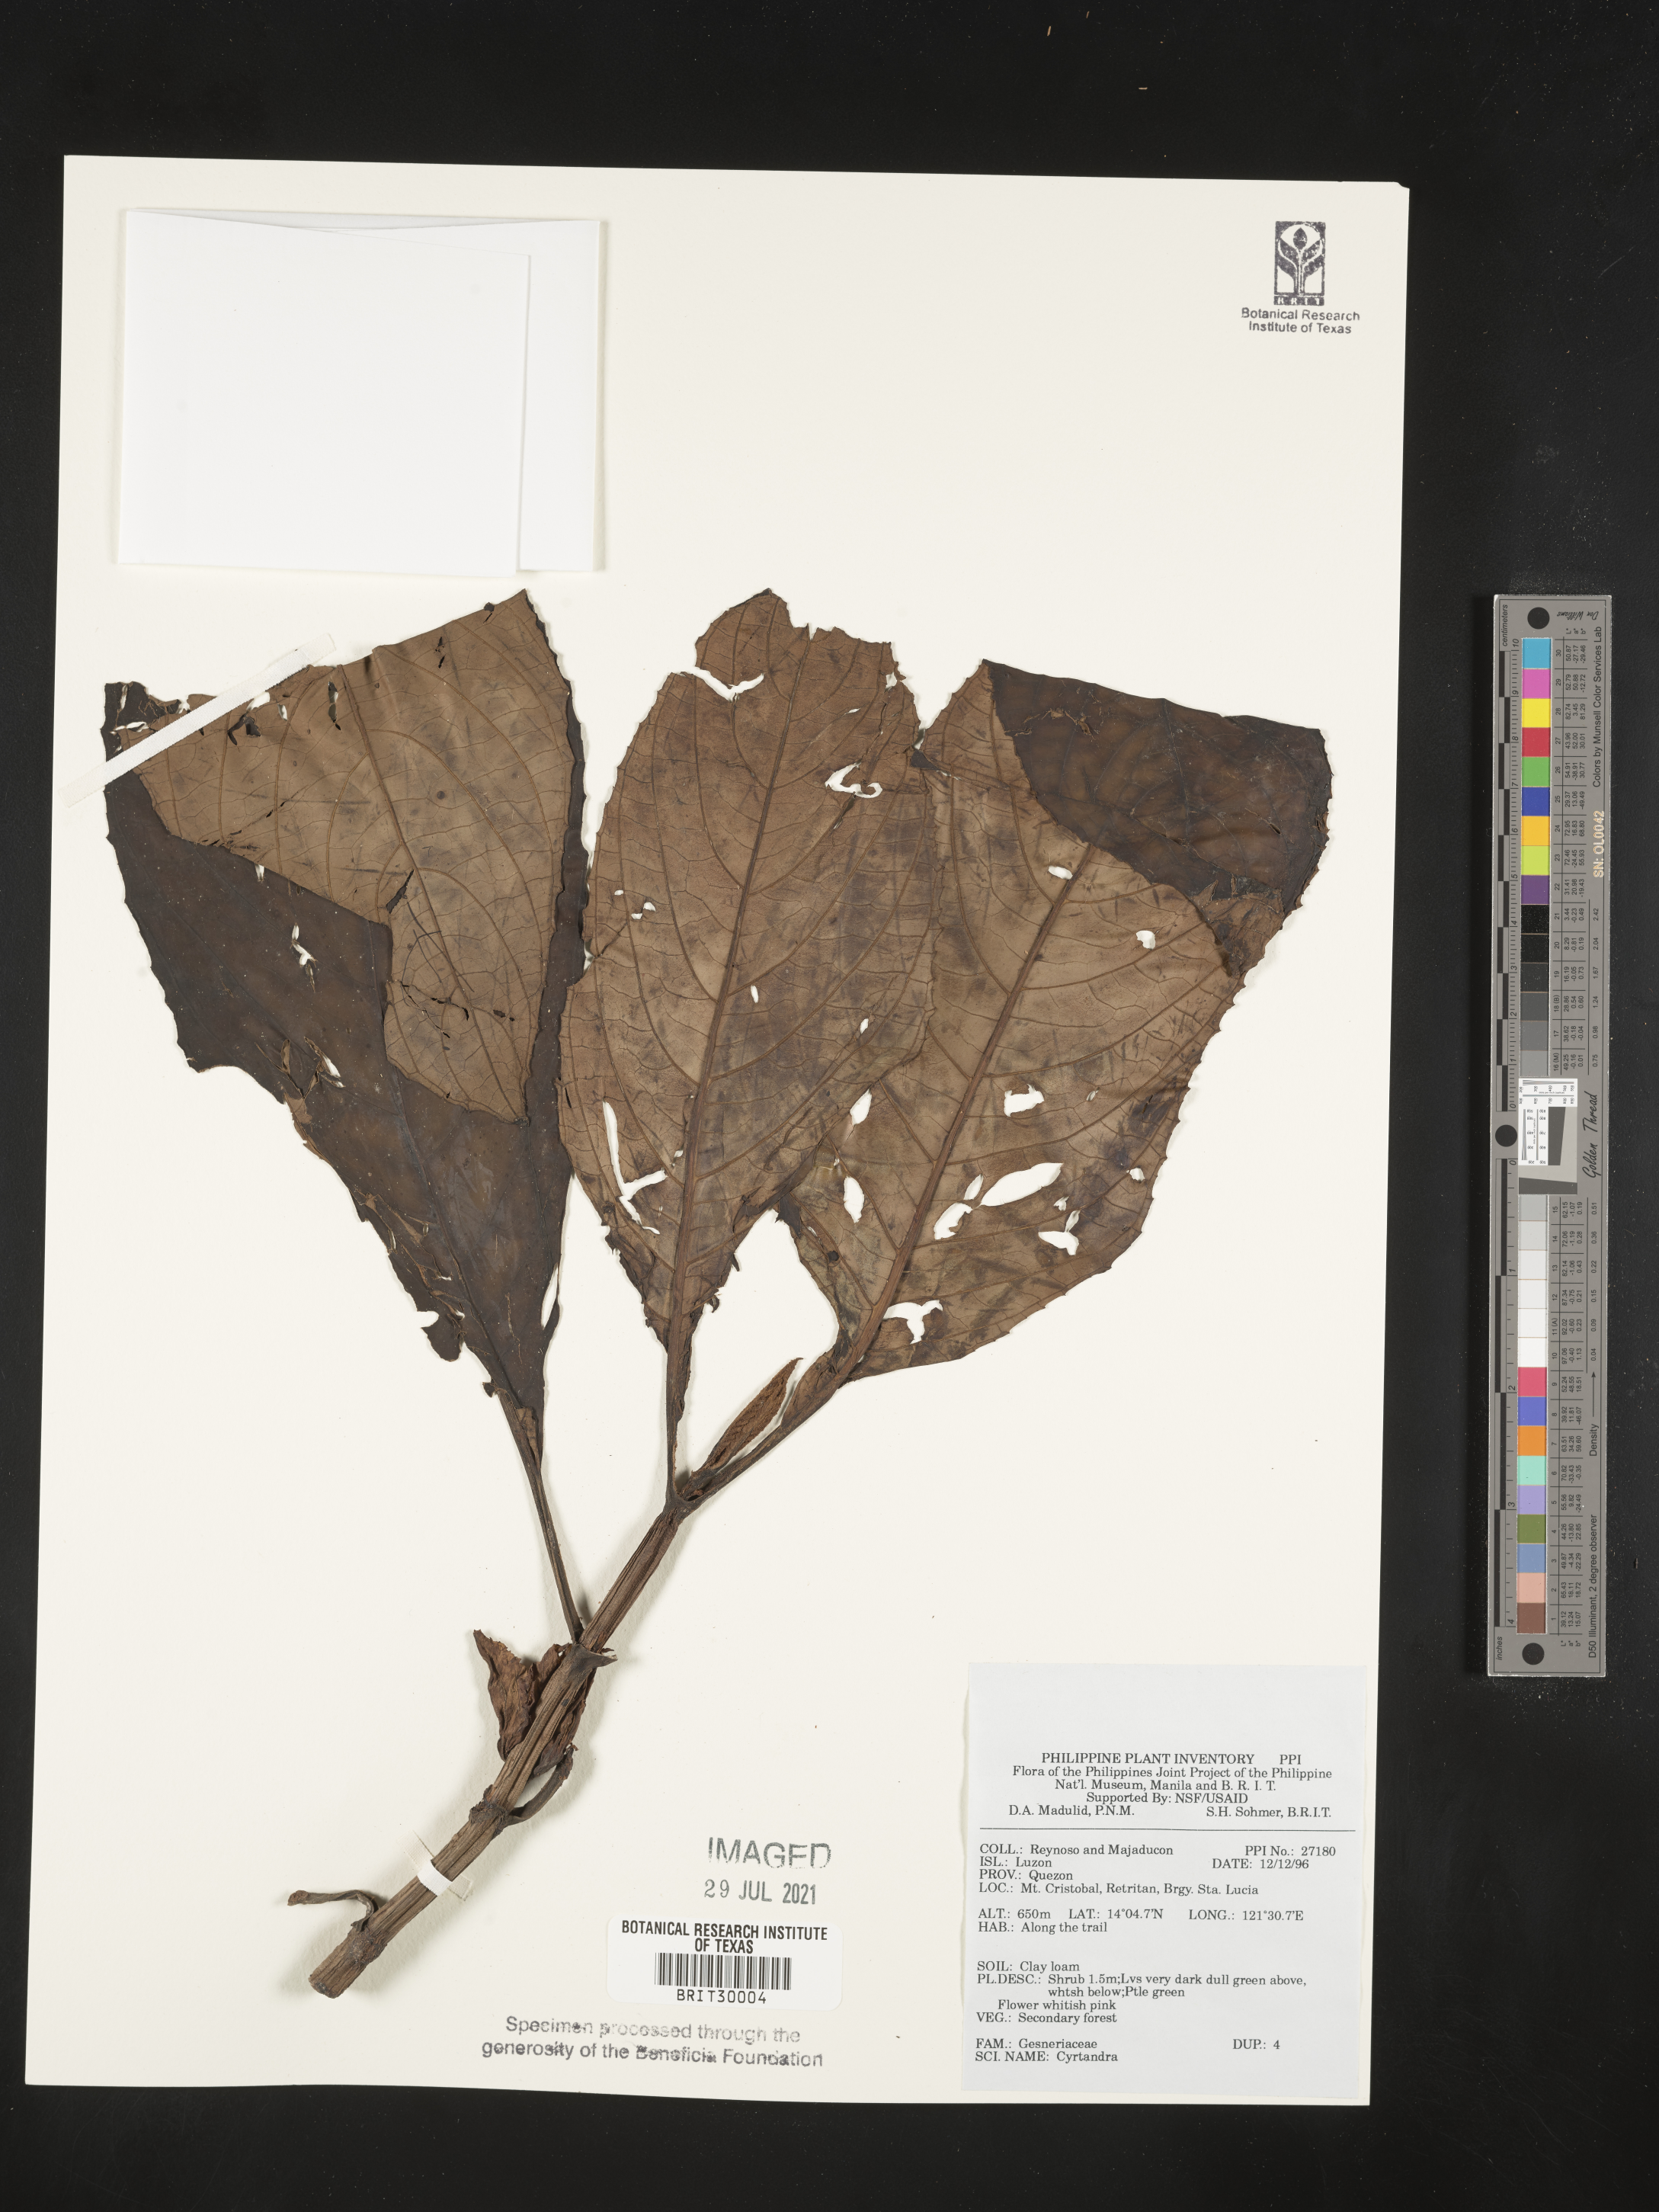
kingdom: Plantae
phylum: Tracheophyta
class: Magnoliopsida
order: Lamiales
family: Gesneriaceae
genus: Cyrtandra
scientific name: Cyrtandra
